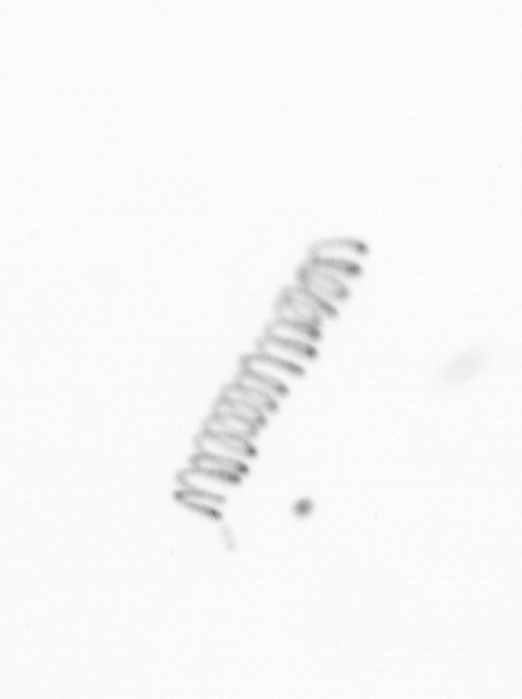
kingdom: Chromista
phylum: Ochrophyta
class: Bacillariophyceae
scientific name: Bacillariophyceae
